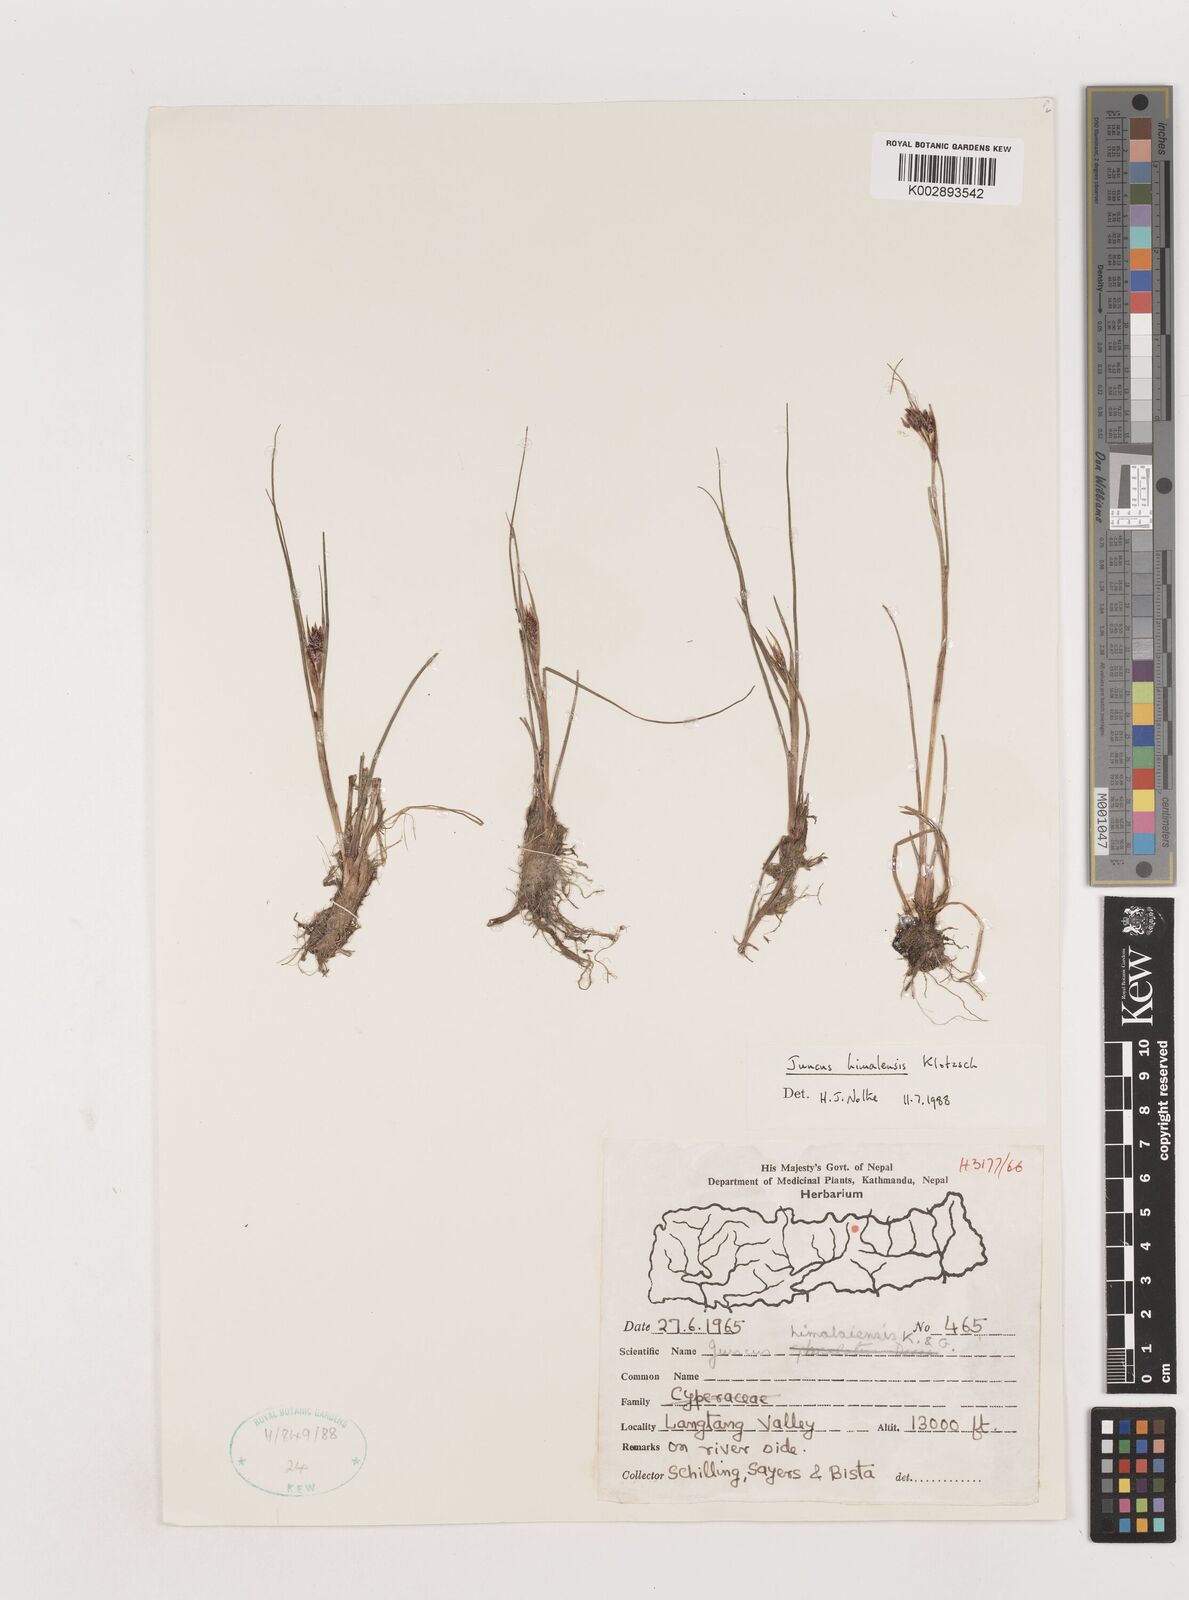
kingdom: Plantae
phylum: Tracheophyta
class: Liliopsida
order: Poales
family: Juncaceae
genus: Juncus
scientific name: Juncus himalensis
